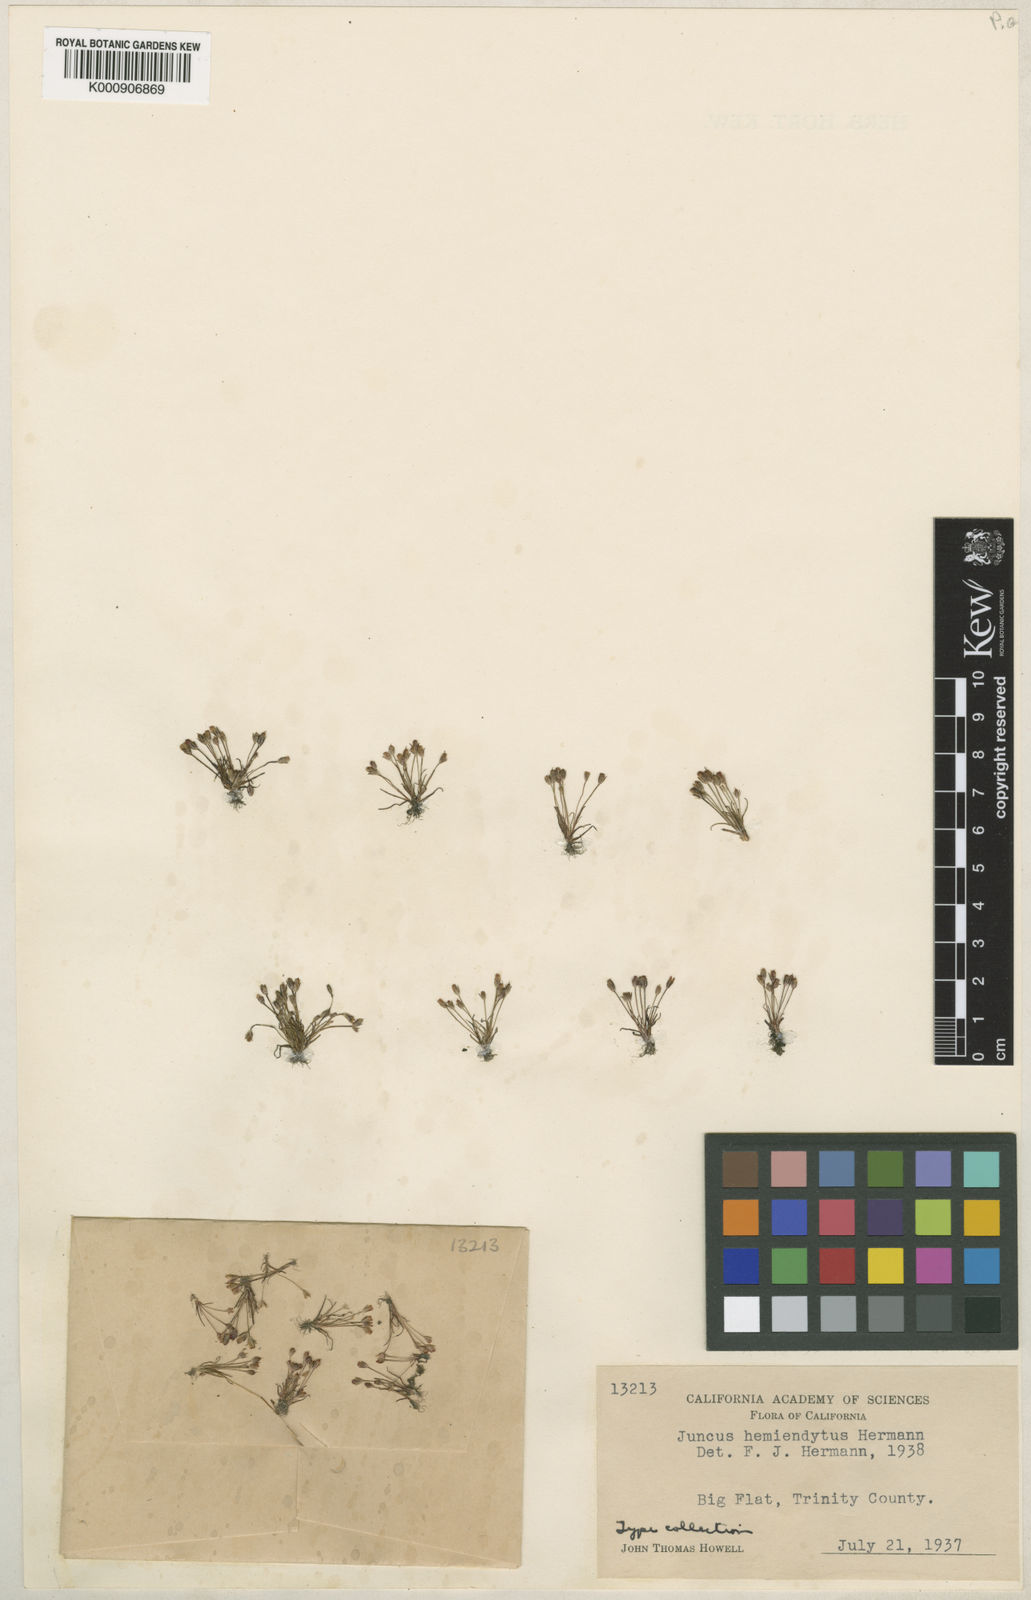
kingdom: Plantae
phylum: Tracheophyta
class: Liliopsida
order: Poales
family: Juncaceae
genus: Juncus
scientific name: Juncus hemiendytus
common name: Hermann's dwarf rush
